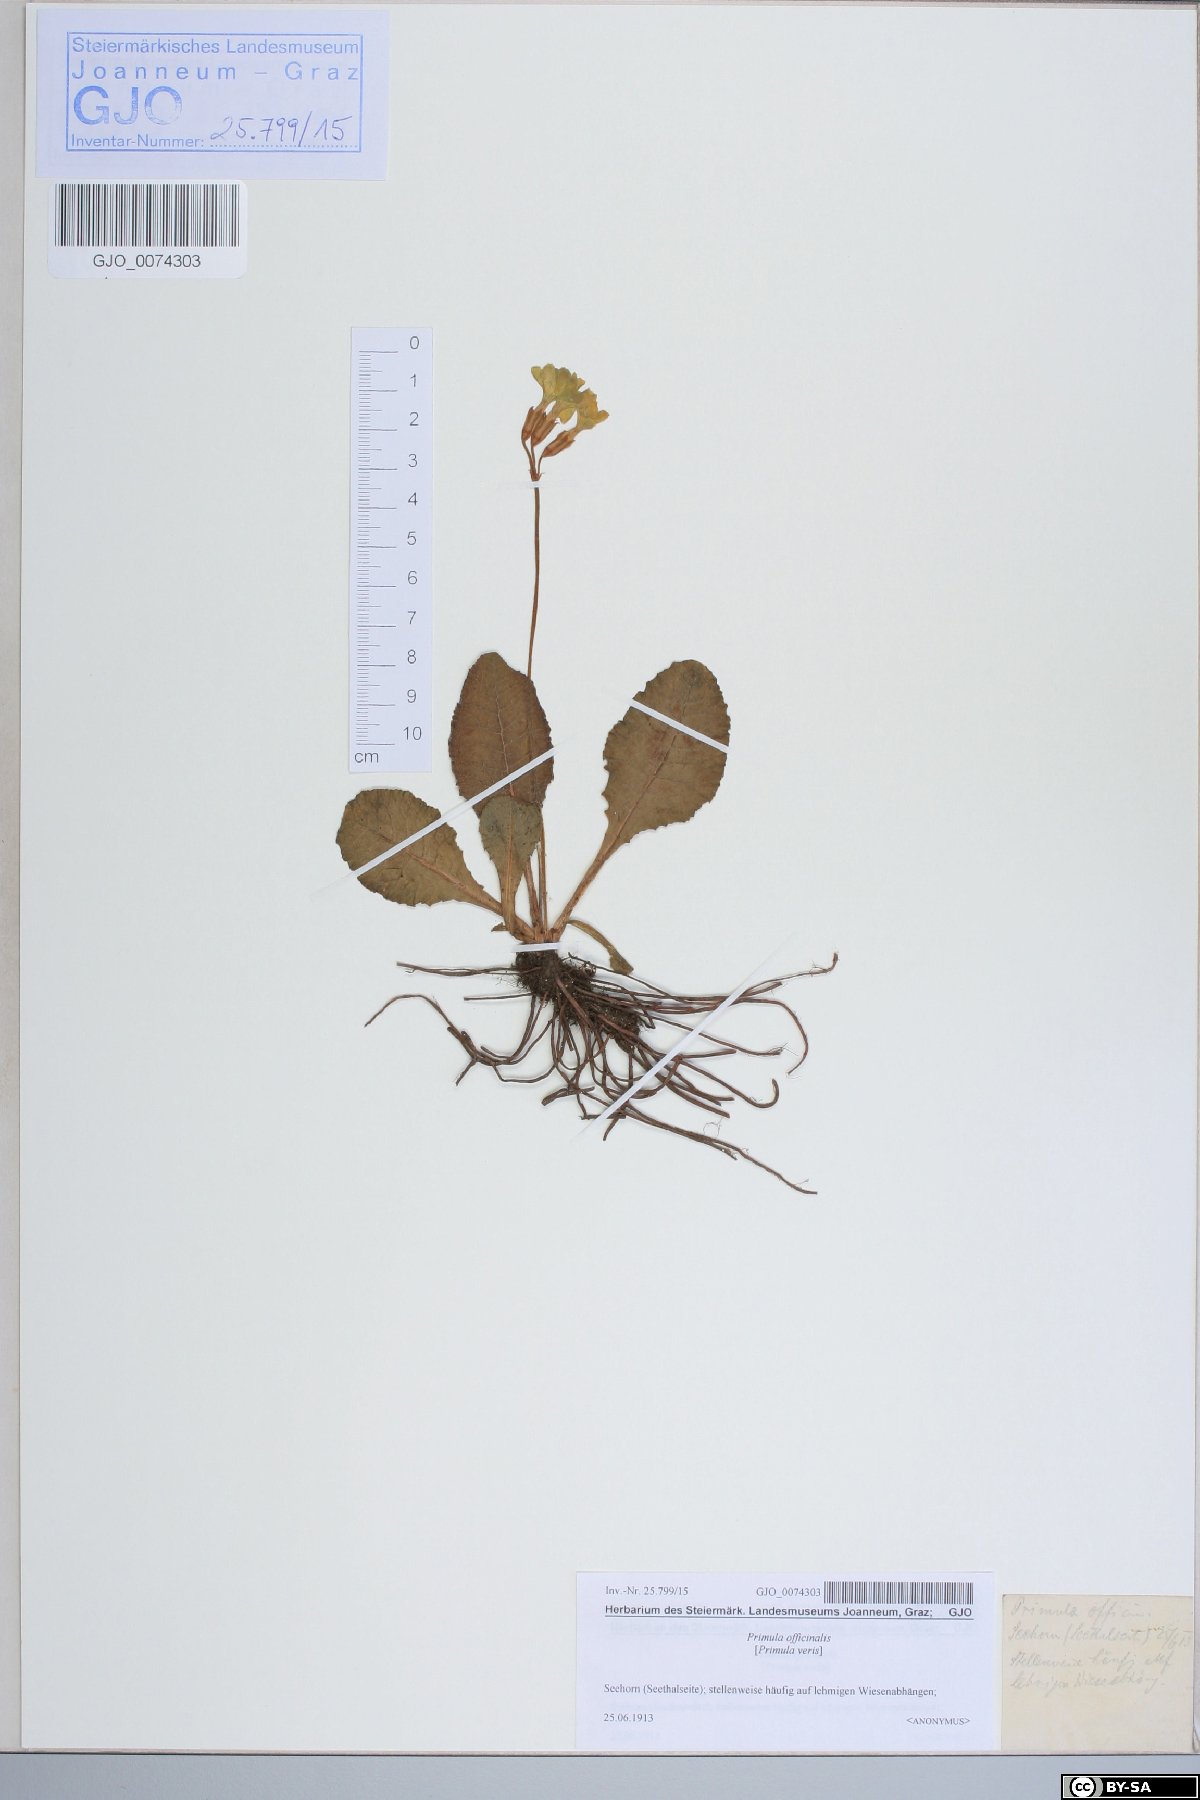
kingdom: Plantae
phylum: Tracheophyta
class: Magnoliopsida
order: Ericales
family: Primulaceae
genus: Primula
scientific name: Primula elatior
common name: Oxlip
